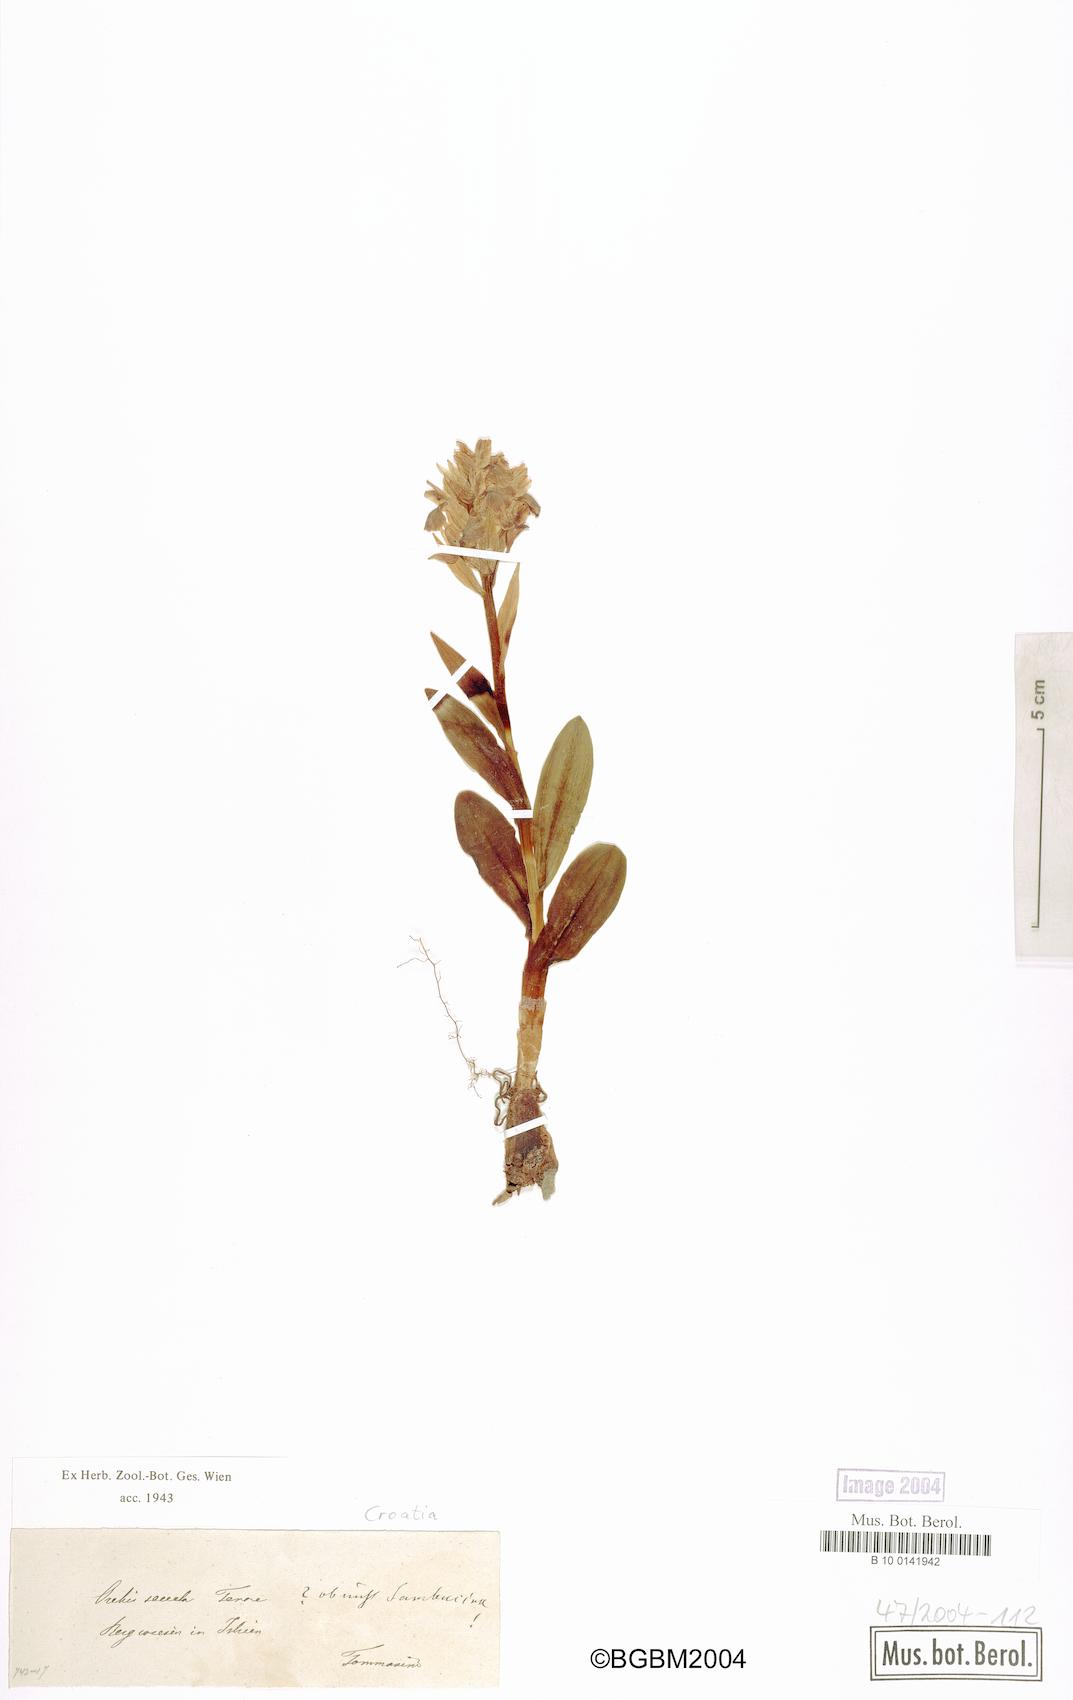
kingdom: Plantae
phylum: Tracheophyta
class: Liliopsida
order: Asparagales
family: Orchidaceae
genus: Dactylorhiza
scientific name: Dactylorhiza sambucina
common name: Elder-flowered orchid
